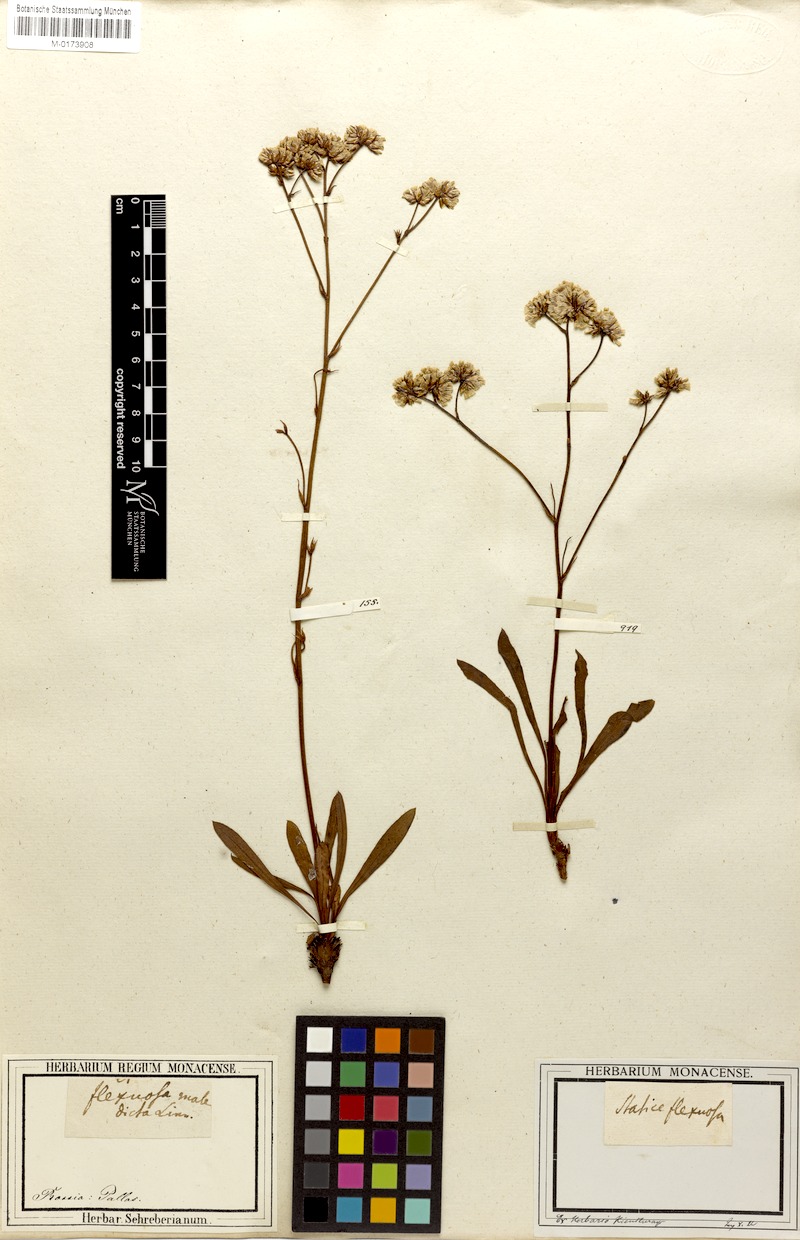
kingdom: Plantae
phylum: Tracheophyta
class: Magnoliopsida
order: Caryophyllales
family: Plumbaginaceae
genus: Limonium
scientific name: Limonium flexuosum
